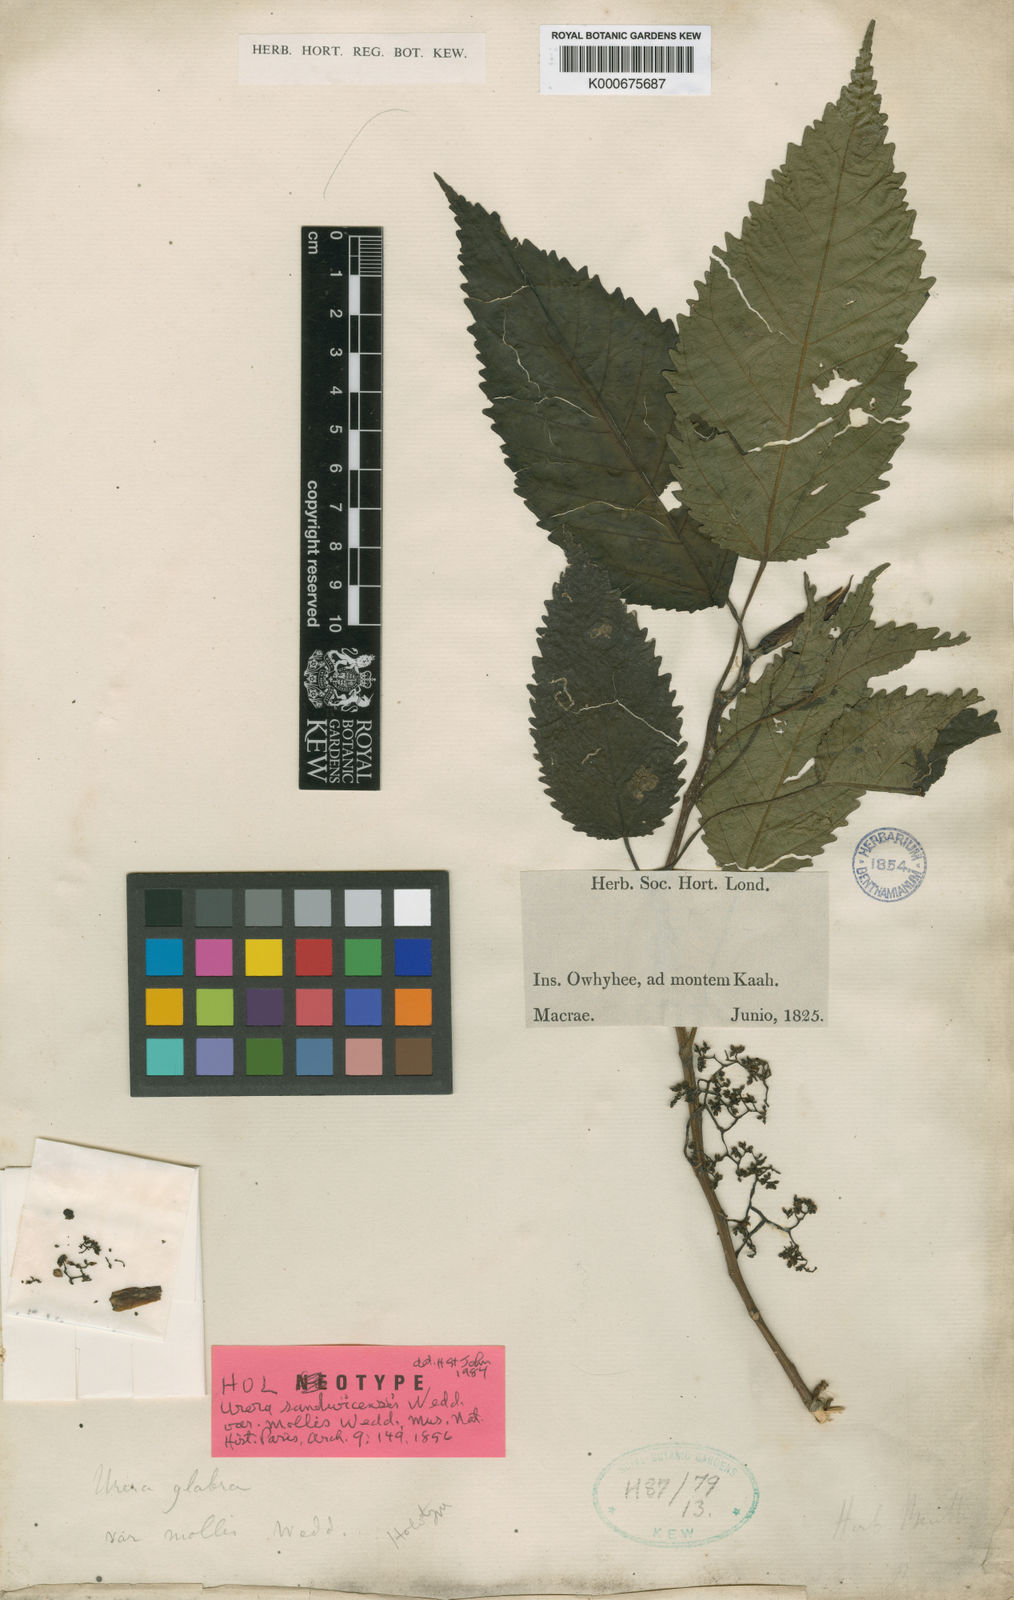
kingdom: Plantae
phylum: Tracheophyta
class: Magnoliopsida
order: Rosales
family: Urticaceae
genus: Touchardia
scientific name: Touchardia oahuensis
